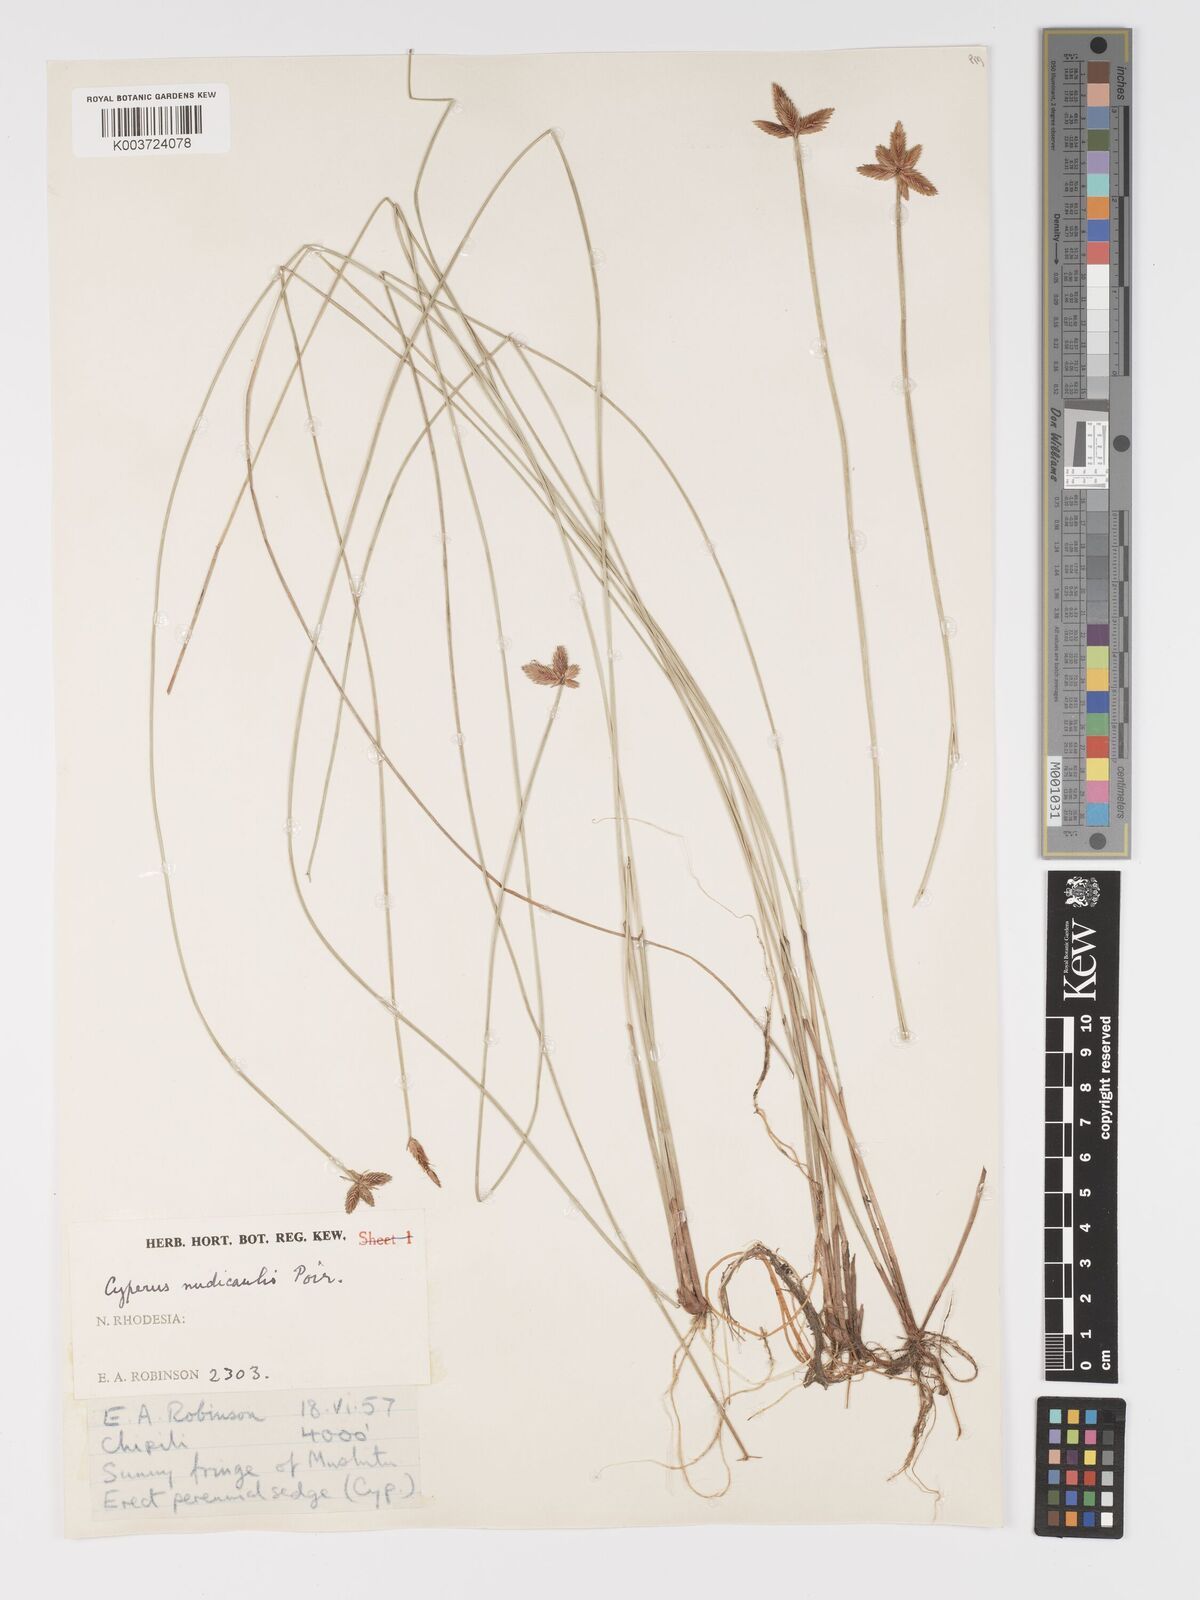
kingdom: Plantae
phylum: Tracheophyta
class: Liliopsida
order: Poales
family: Cyperaceae
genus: Cyperus
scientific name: Cyperus compressus
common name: Poorland flatsedge
